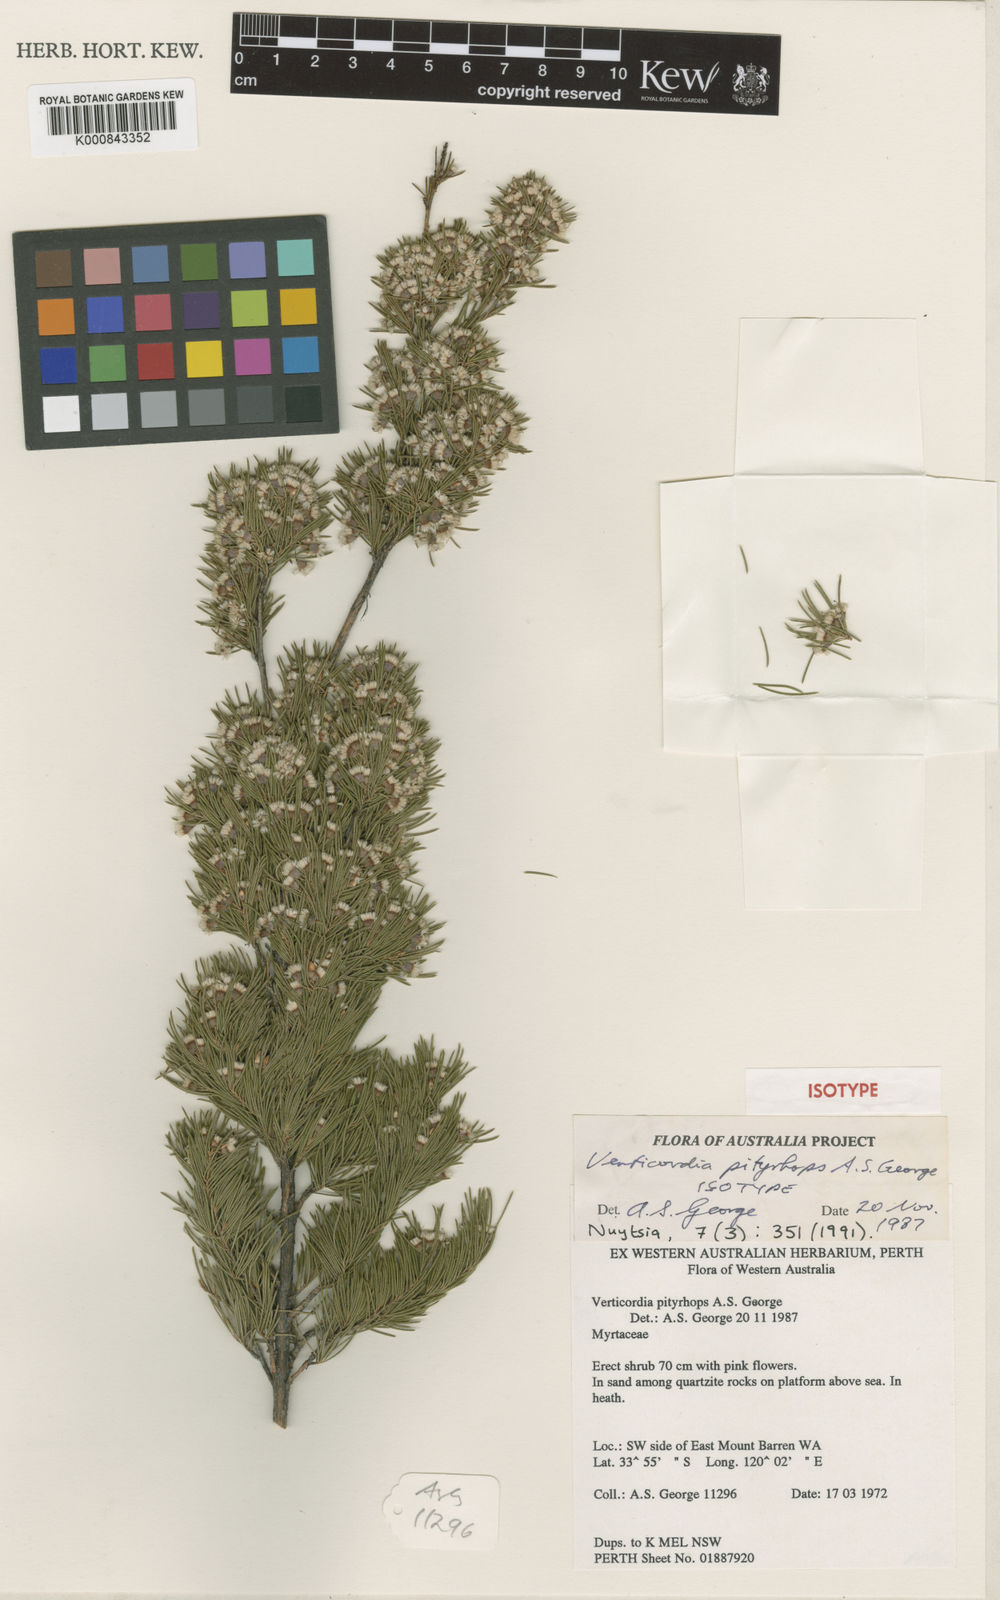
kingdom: Plantae
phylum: Tracheophyta
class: Magnoliopsida
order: Myrtales
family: Myrtaceae
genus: Verticordia
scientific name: Verticordia pityrhops
